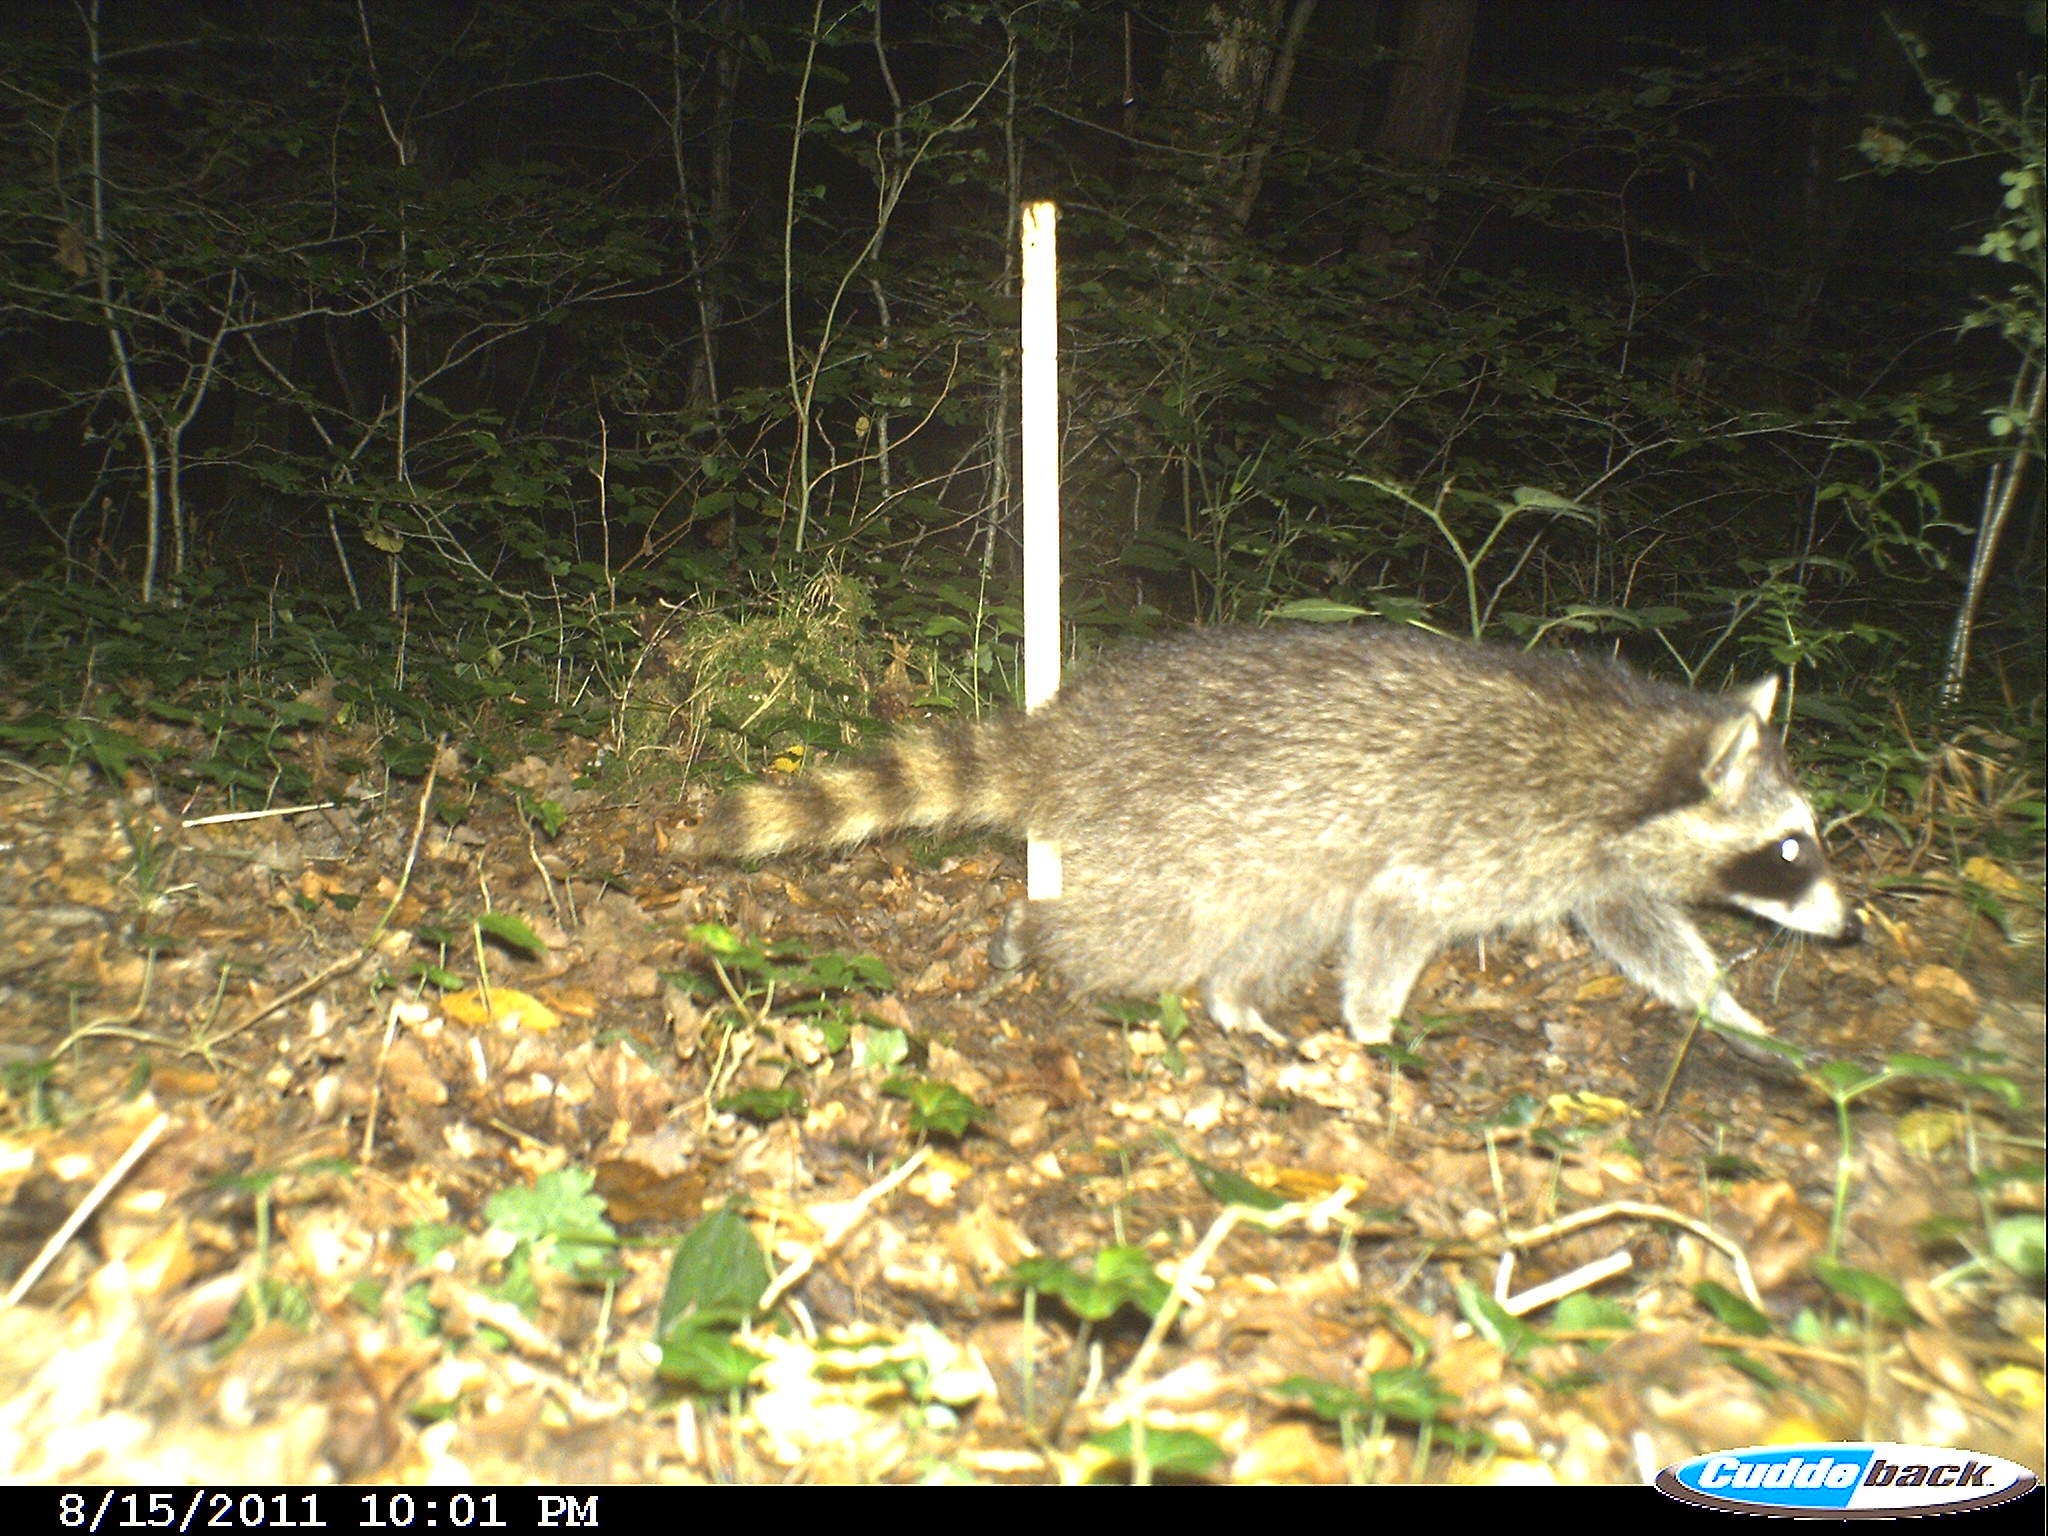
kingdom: Animalia
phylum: Chordata
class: Mammalia
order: Carnivora
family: Procyonidae
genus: Procyon
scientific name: Procyon lotor
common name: Raccoon
